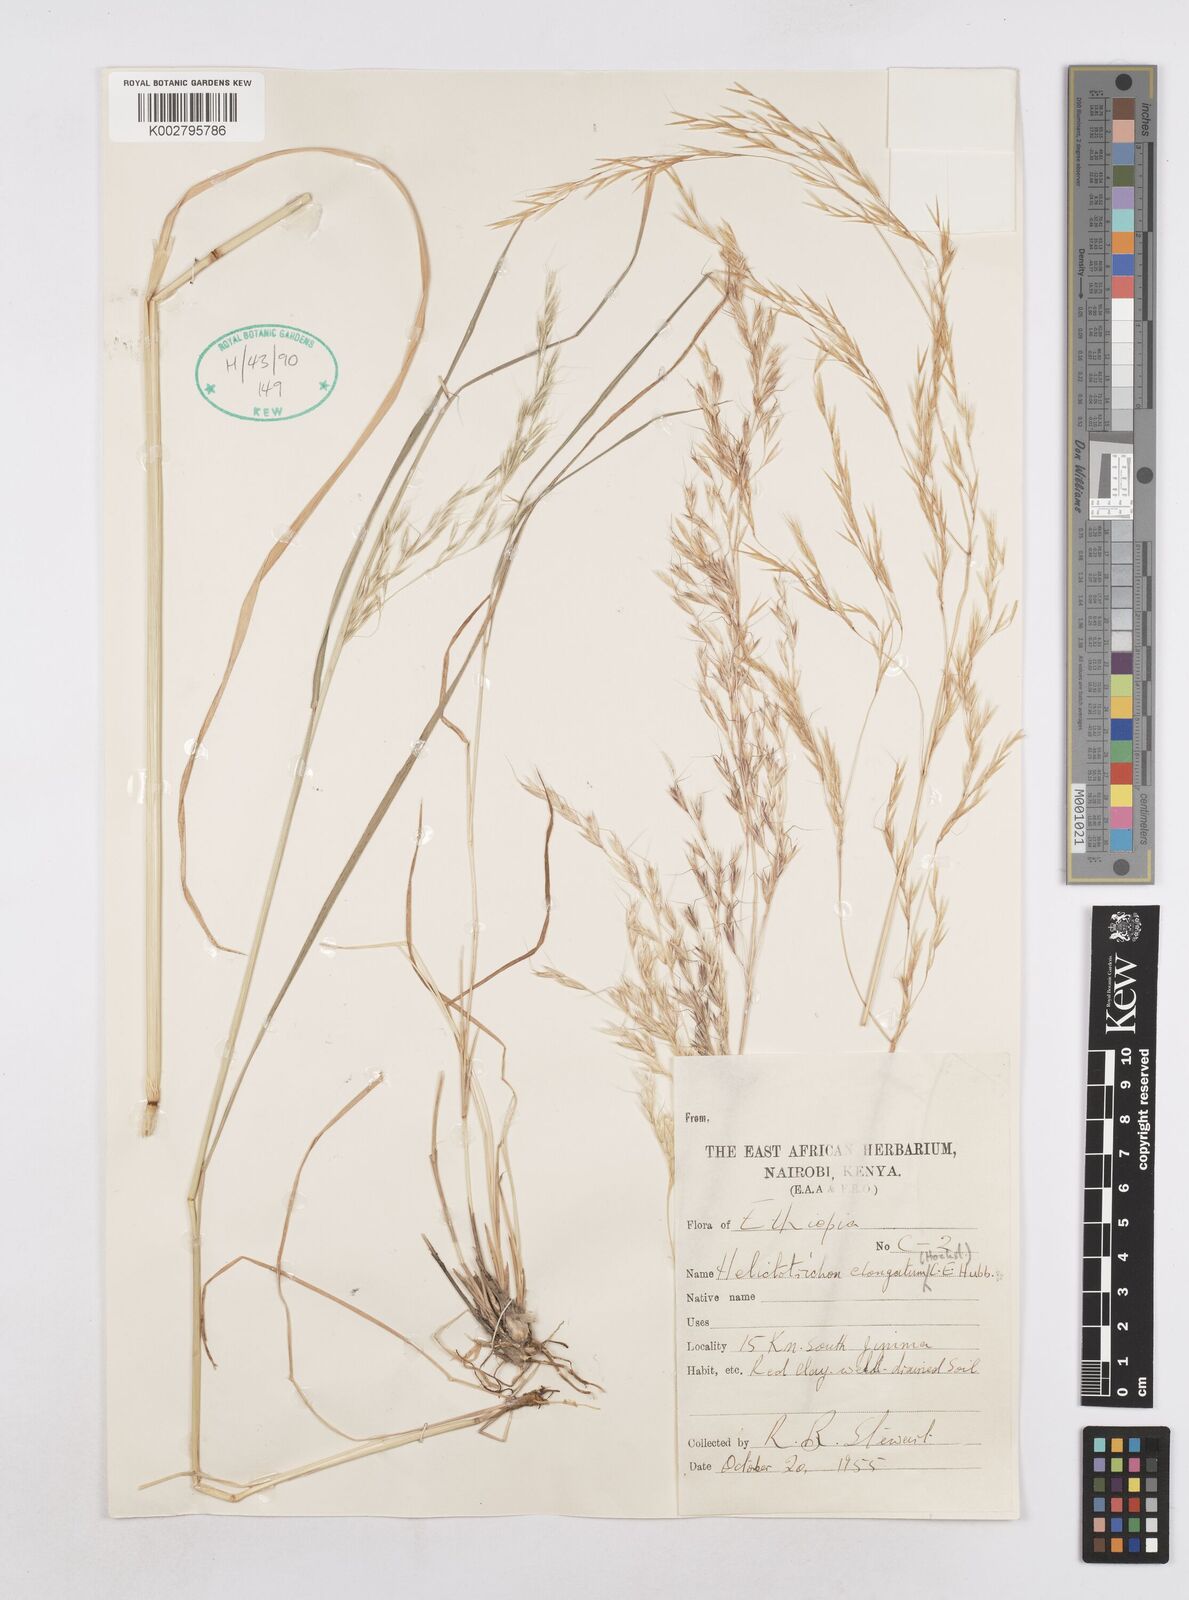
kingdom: Plantae
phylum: Tracheophyta
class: Liliopsida
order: Poales
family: Poaceae
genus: Trisetopsis
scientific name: Trisetopsis elongata
